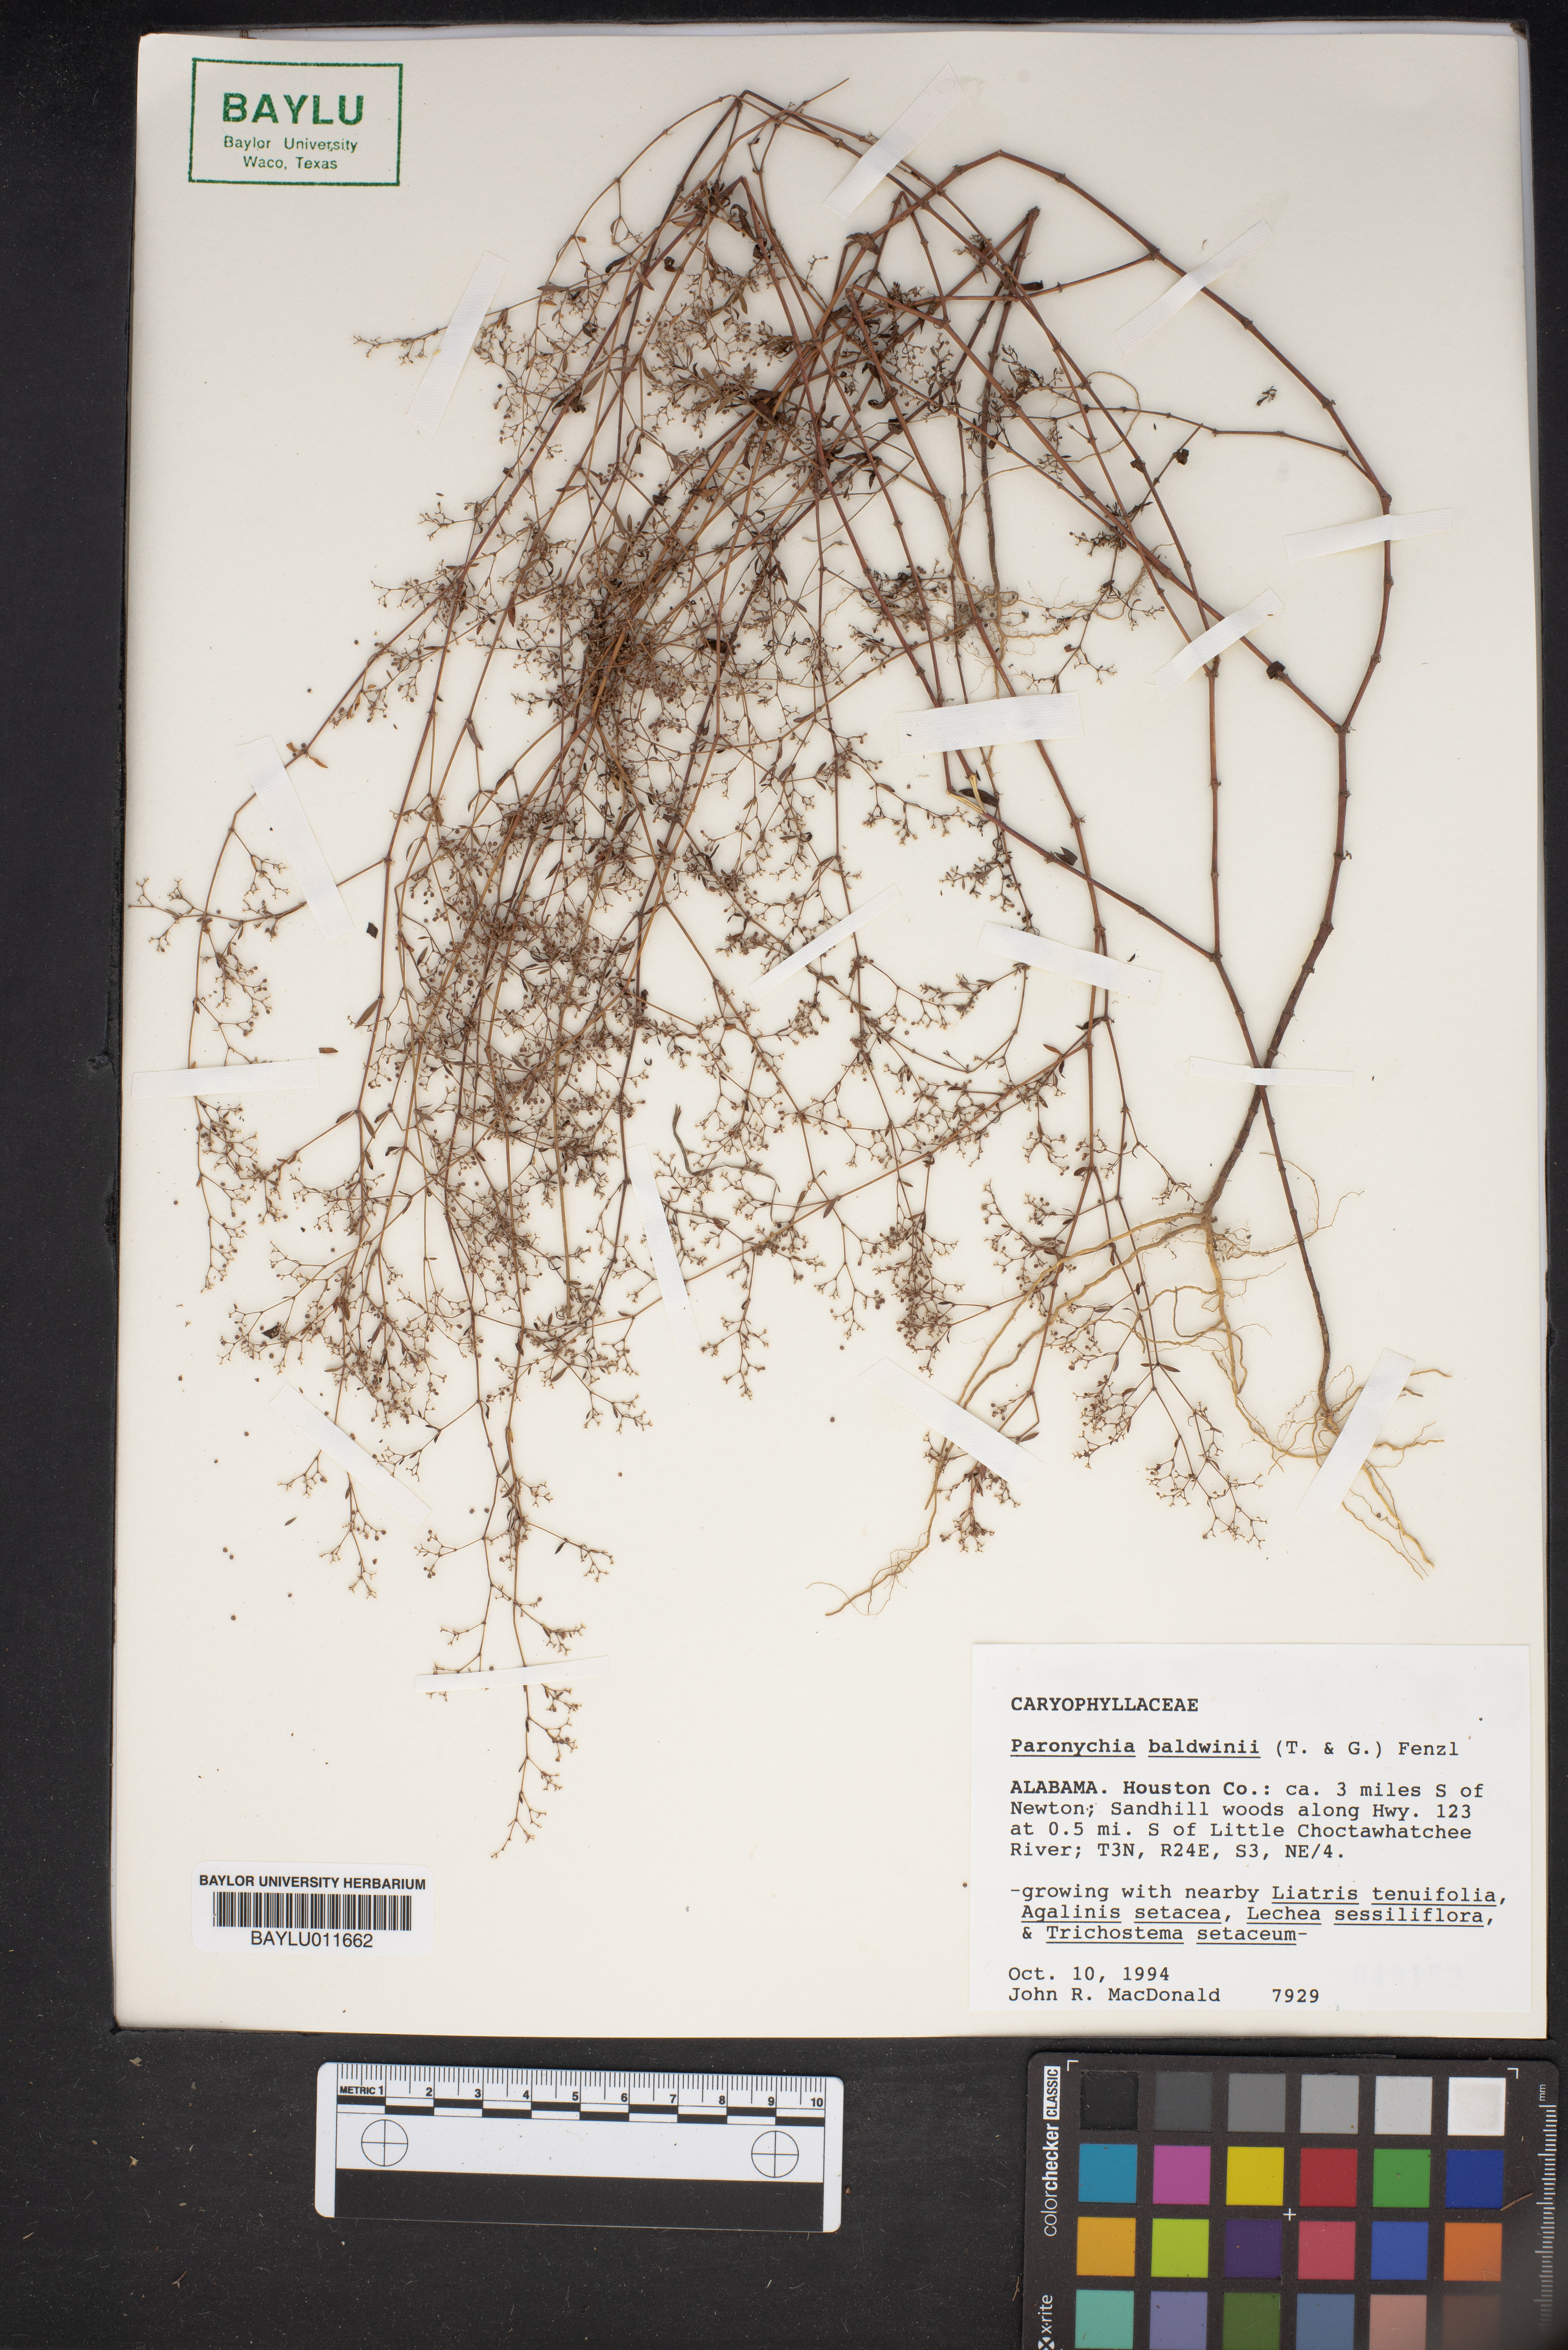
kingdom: Plantae
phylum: Tracheophyta
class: Magnoliopsida
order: Caryophyllales
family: Caryophyllaceae
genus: Paronychia
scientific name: Paronychia baldwinii
